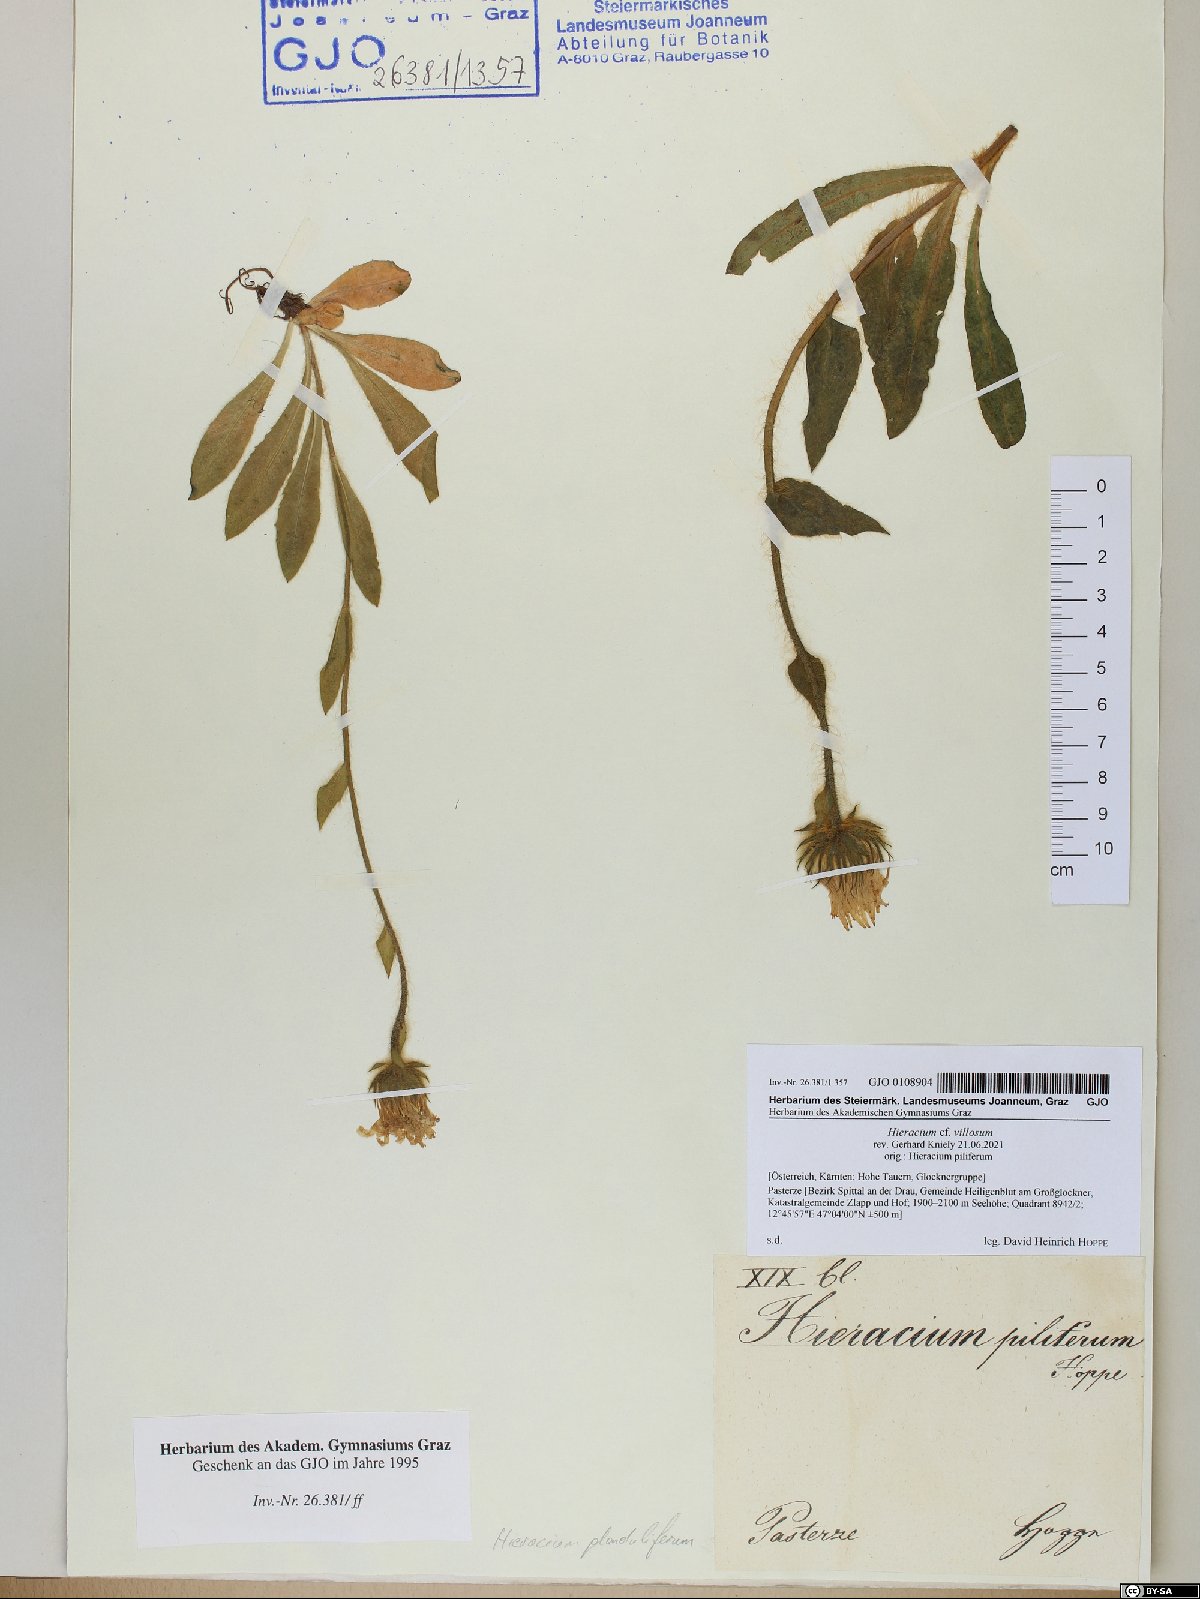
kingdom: Plantae
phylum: Tracheophyta
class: Magnoliopsida
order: Asterales
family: Asteraceae
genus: Hieracium
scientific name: Hieracium villosum
